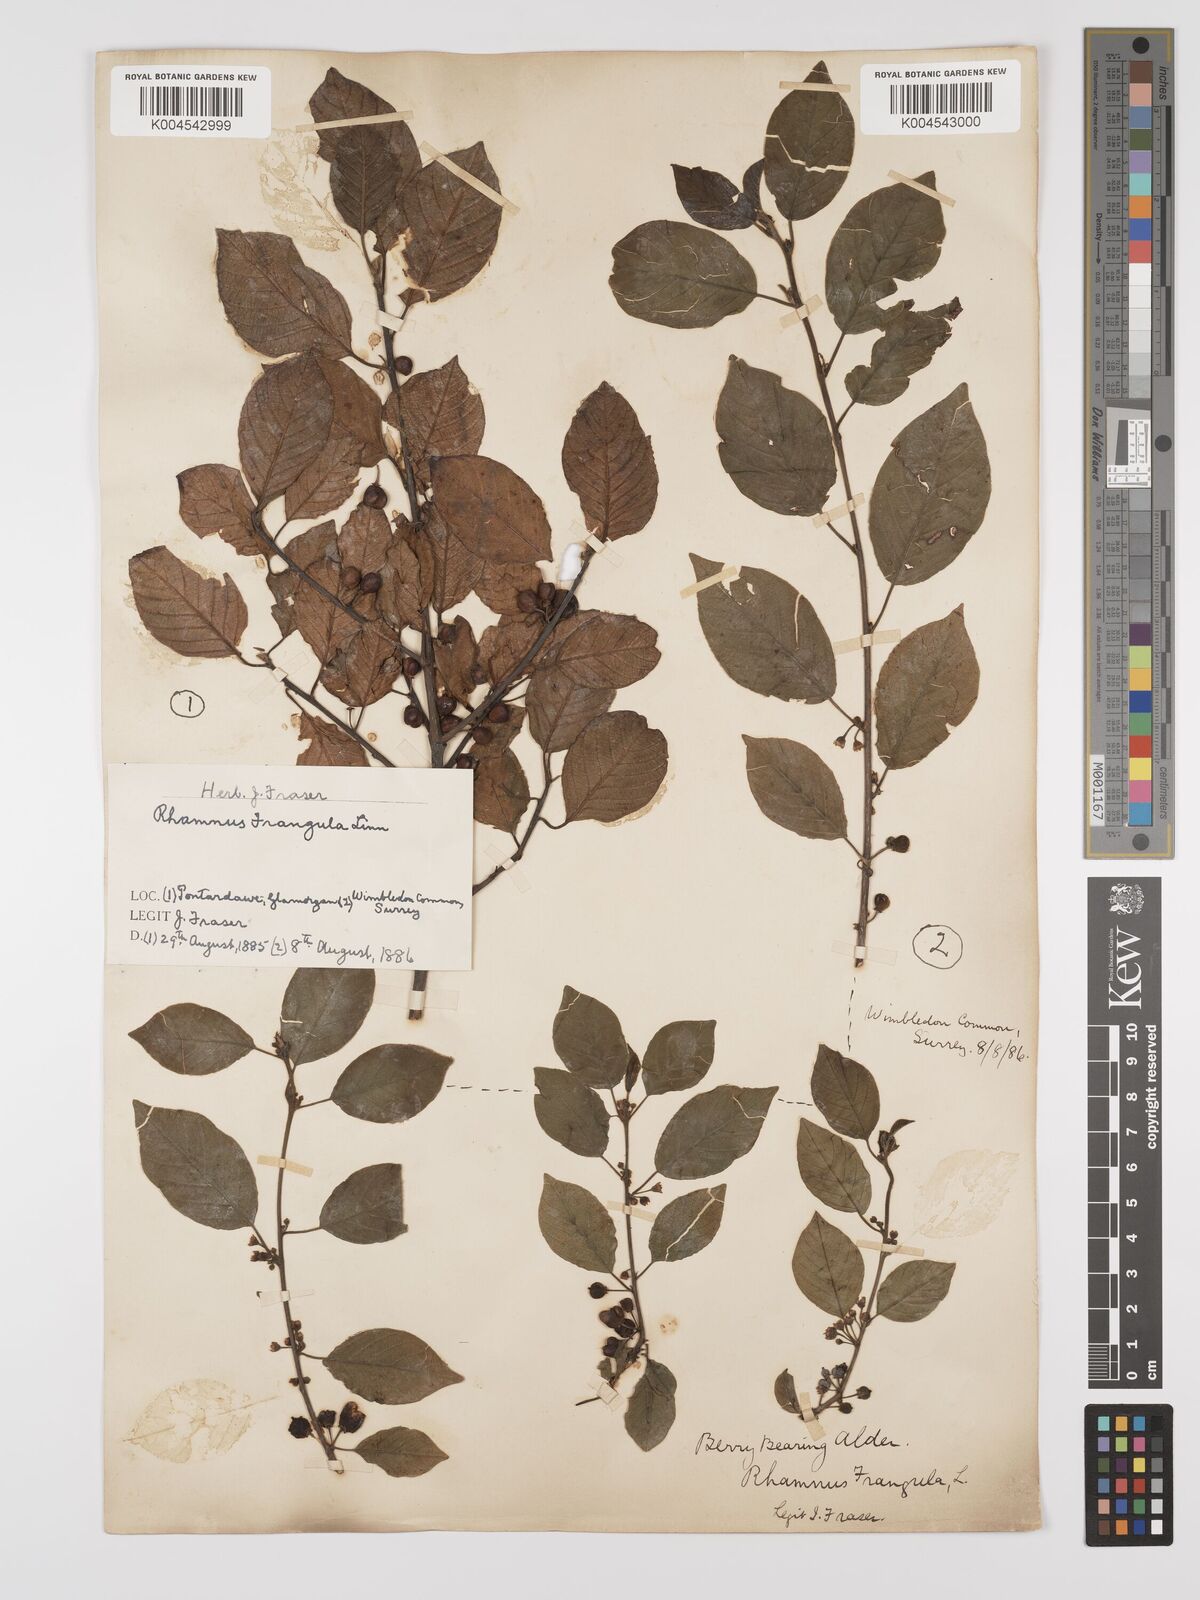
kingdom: Plantae
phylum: Tracheophyta
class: Magnoliopsida
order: Rosales
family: Rhamnaceae
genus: Frangula
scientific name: Frangula alnus
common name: Alder buckthorn
